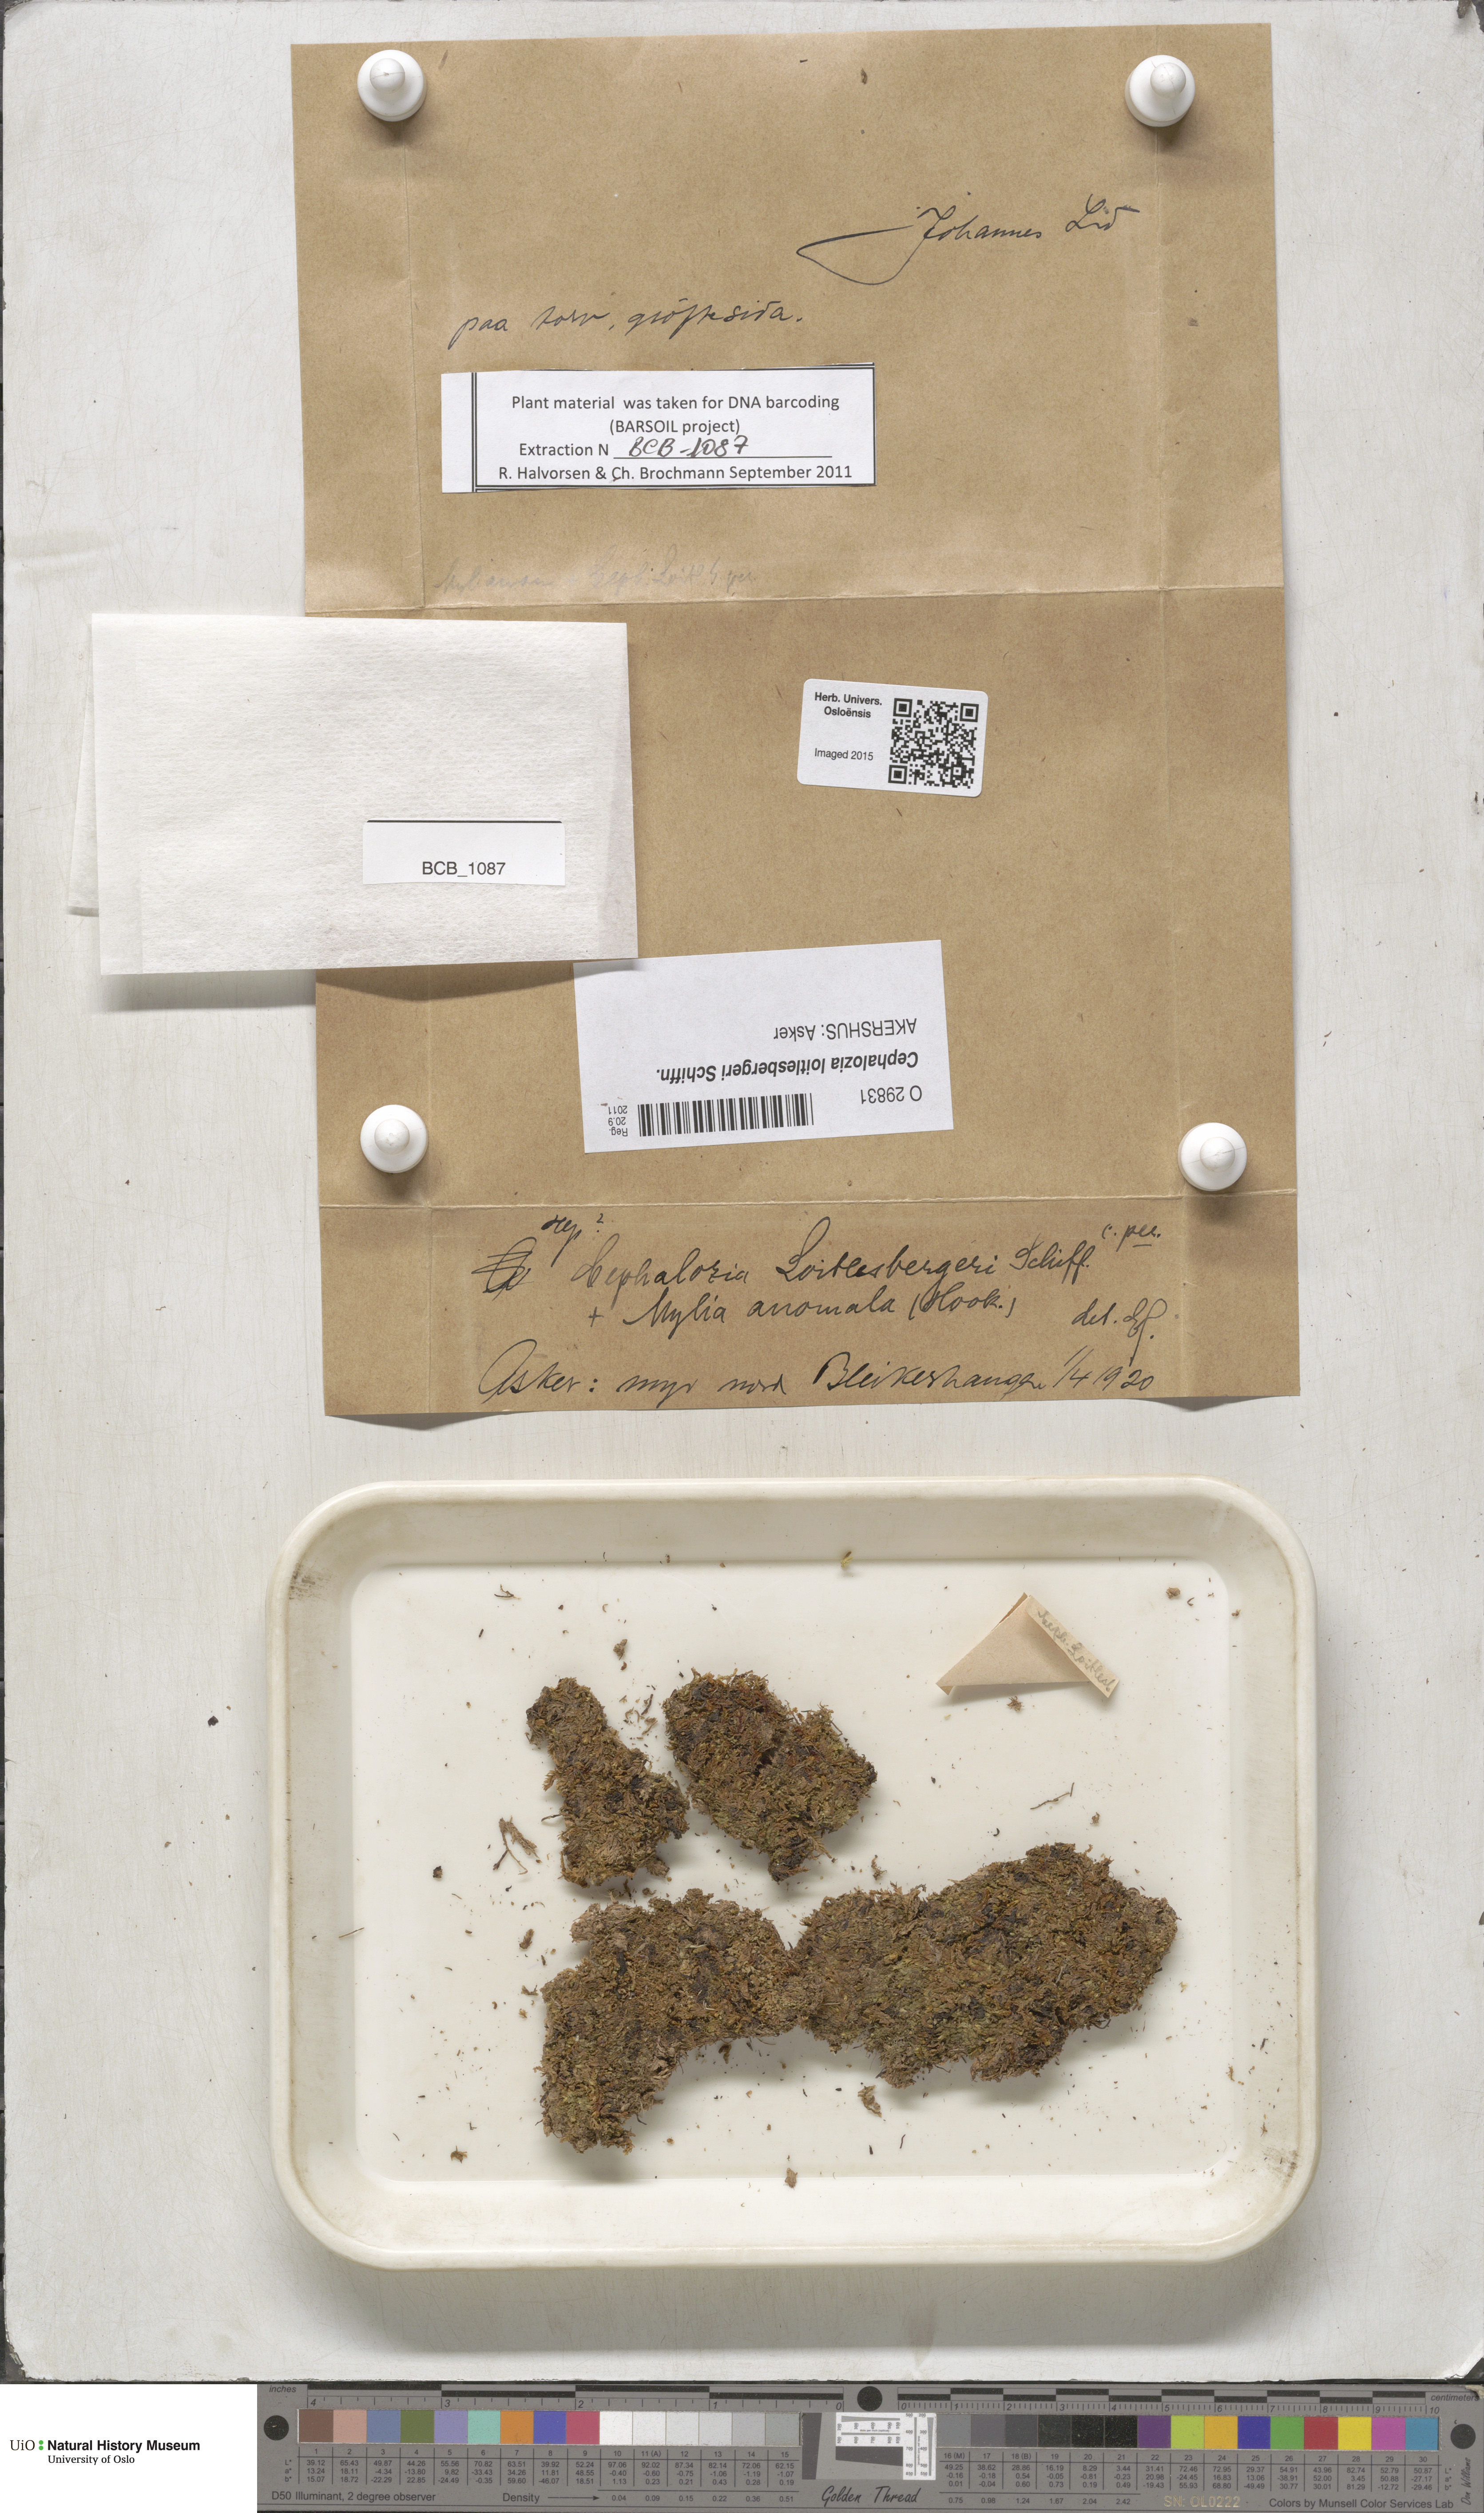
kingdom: Plantae
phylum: Marchantiophyta
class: Jungermanniopsida
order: Jungermanniales
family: Cephaloziaceae
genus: Fuscocephaloziopsis
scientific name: Fuscocephaloziopsis loitlesbergeri
